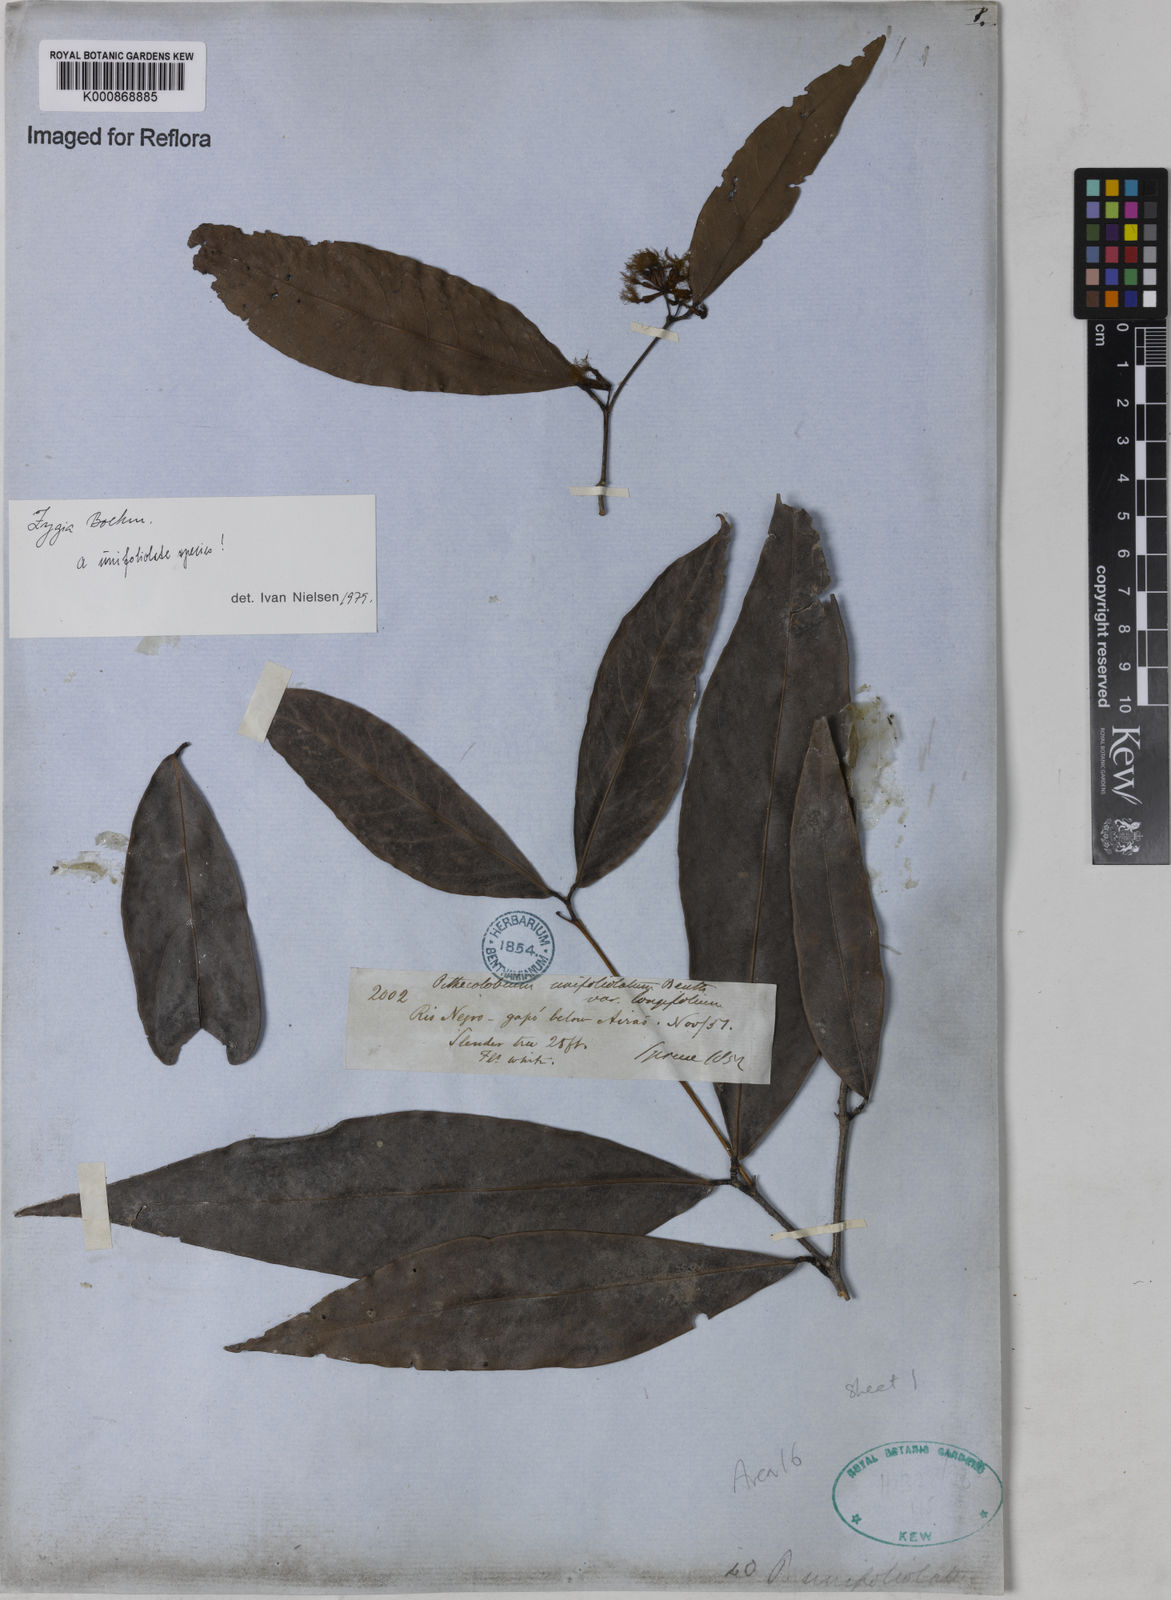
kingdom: Plantae
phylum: Tracheophyta
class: Magnoliopsida
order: Fabales
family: Fabaceae
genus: Zygia
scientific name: Zygia unifoliolata
